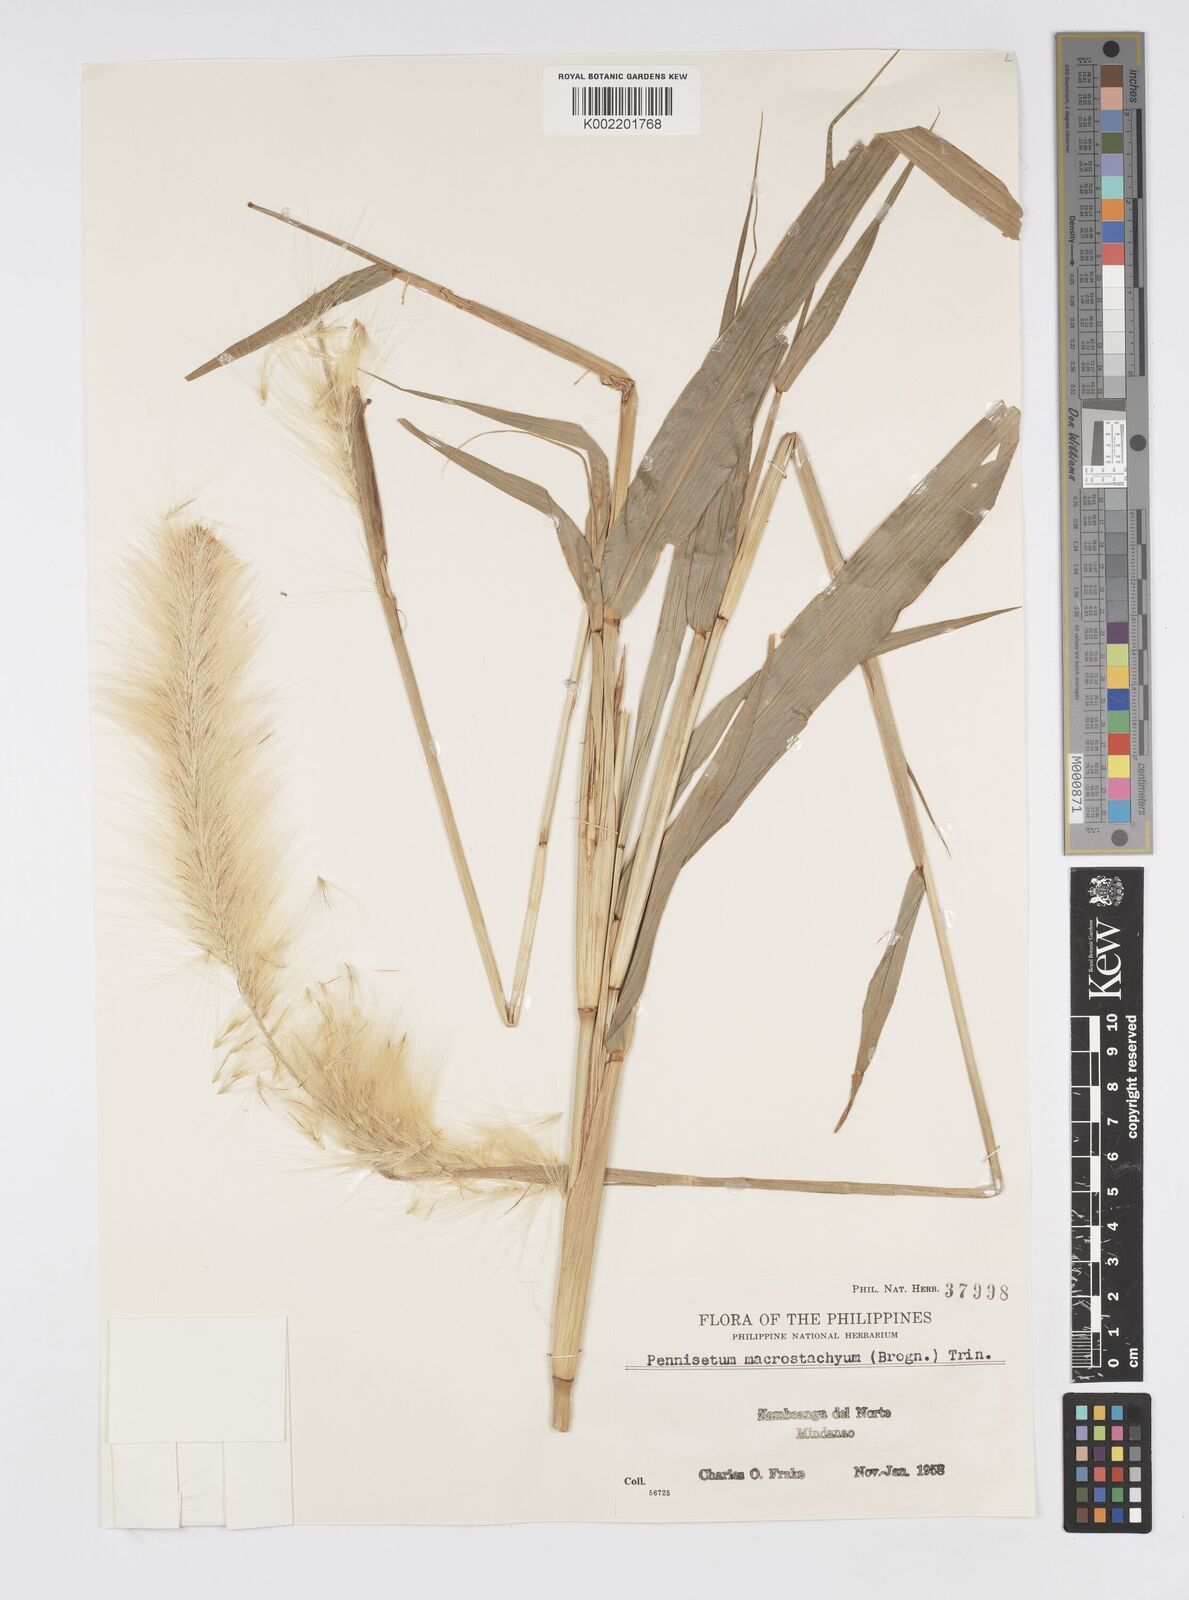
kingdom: Plantae
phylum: Tracheophyta
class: Liliopsida
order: Poales
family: Poaceae
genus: Cenchrus
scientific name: Cenchrus purpureus
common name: Elephant grass
